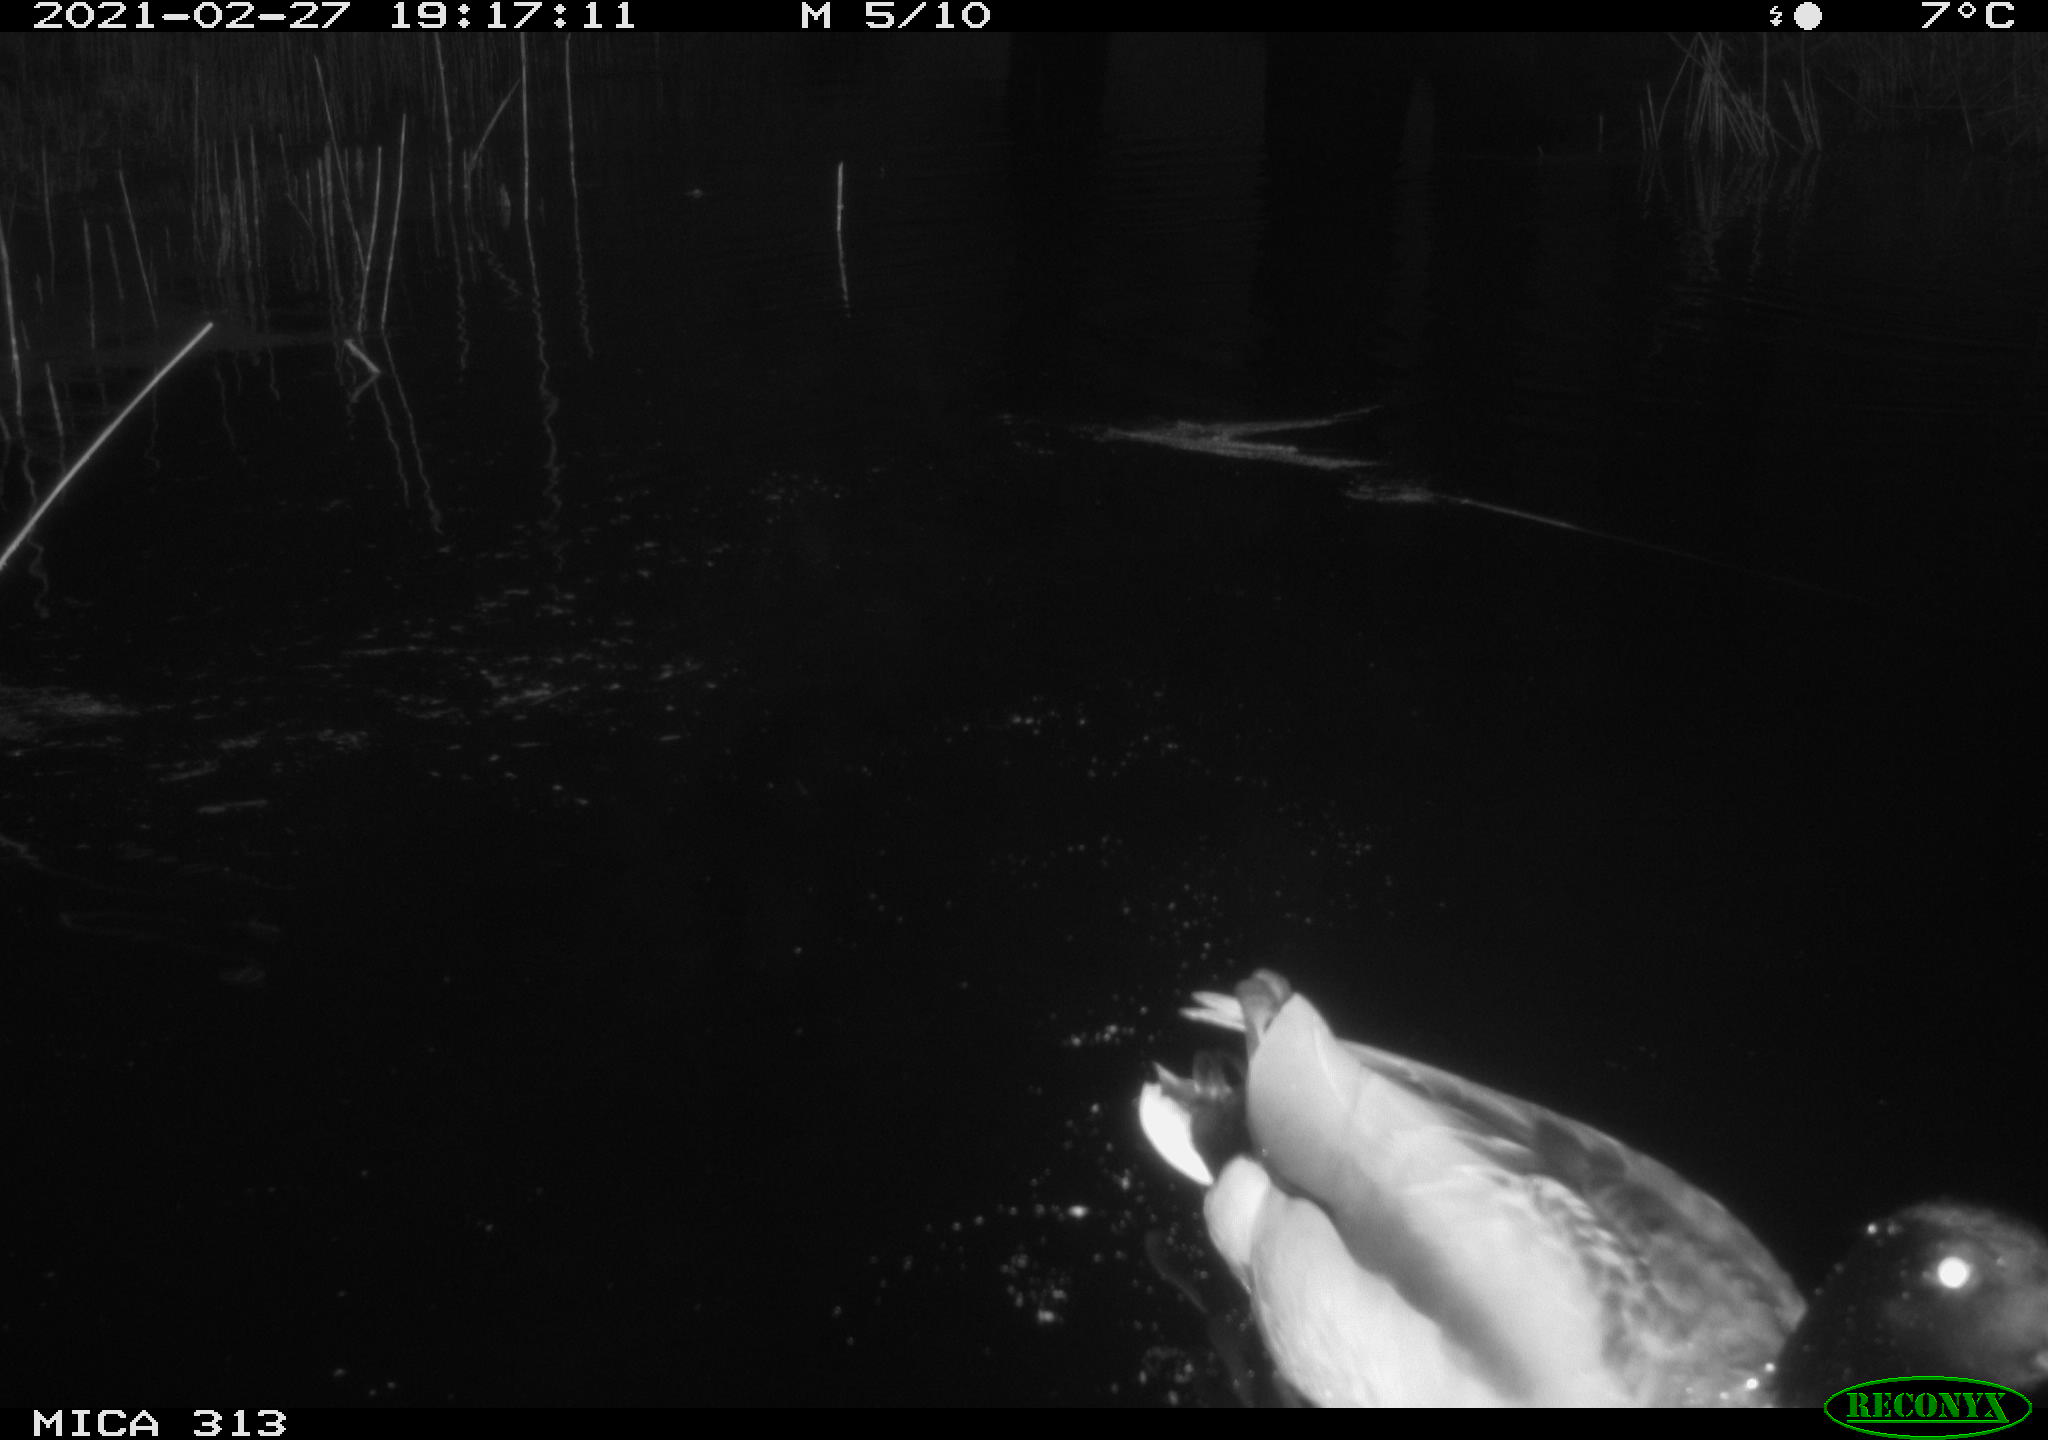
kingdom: Animalia
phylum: Chordata
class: Aves
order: Anseriformes
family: Anatidae
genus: Anas
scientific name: Anas
